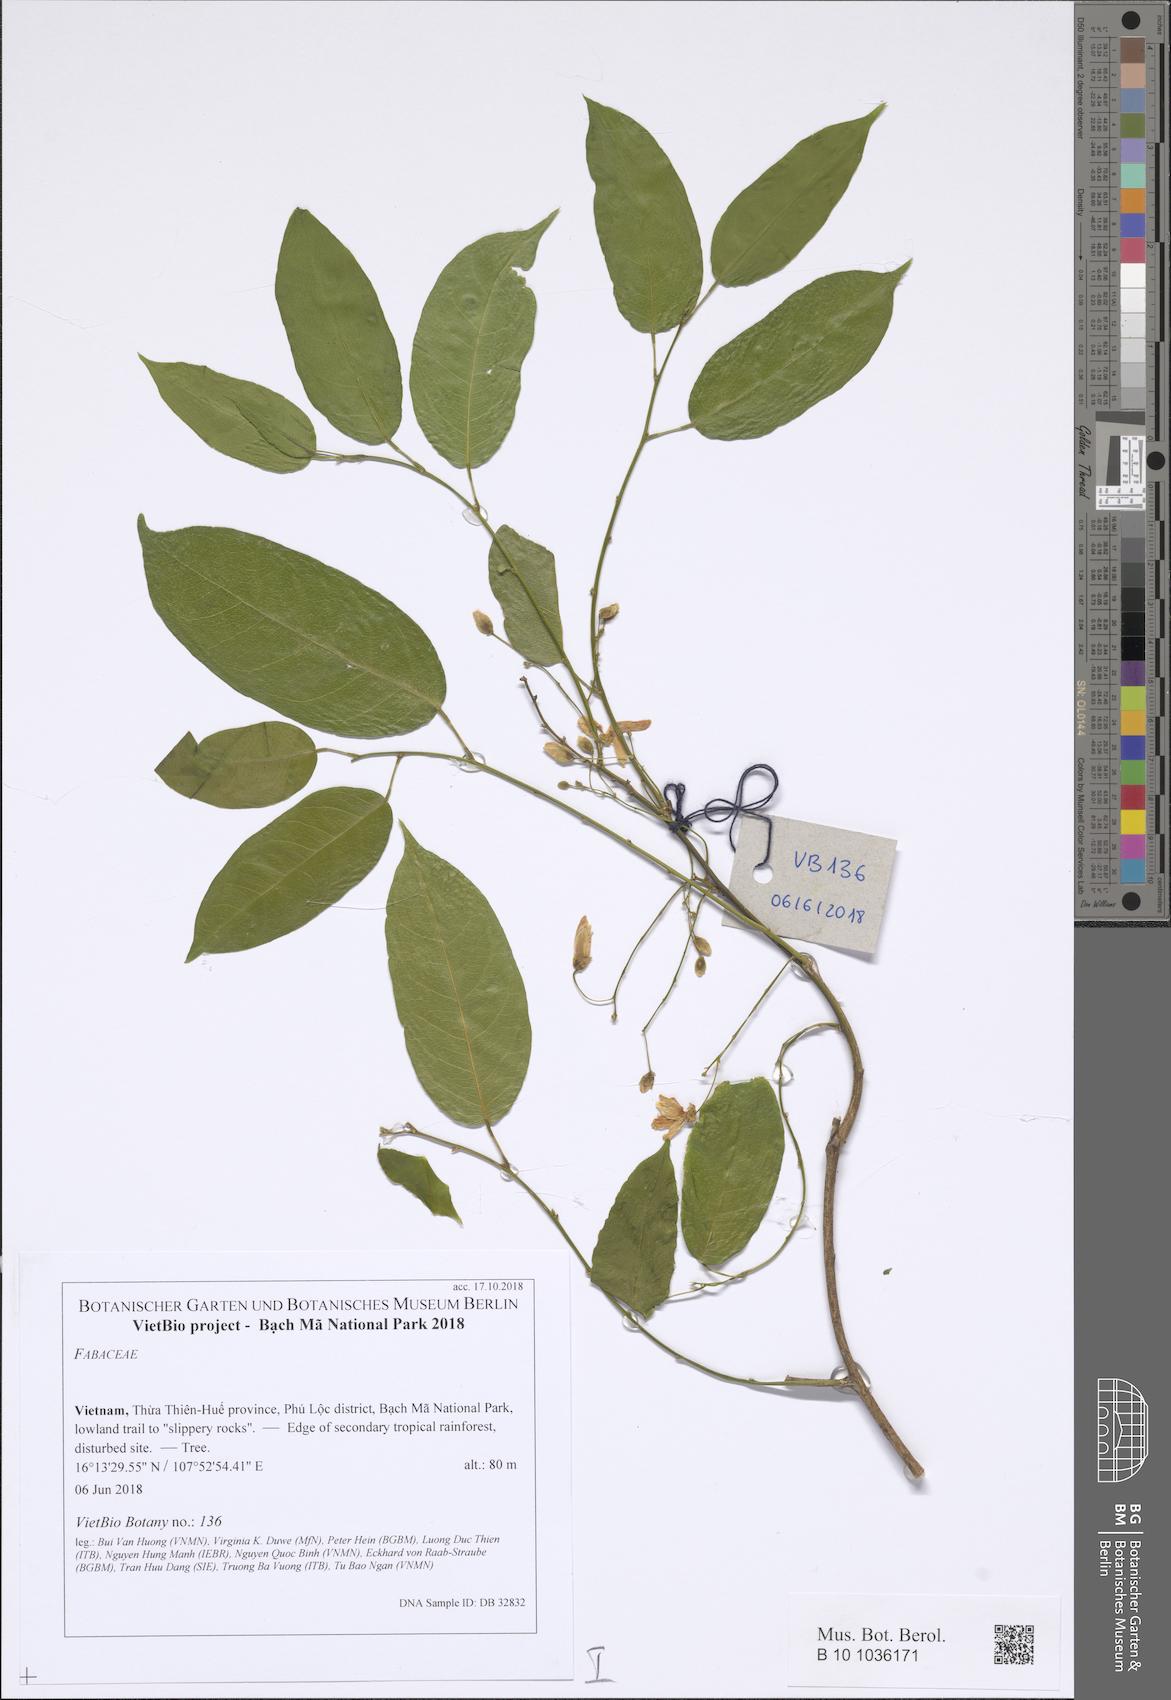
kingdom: Plantae
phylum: Tracheophyta
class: Magnoliopsida
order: Fabales
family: Fabaceae
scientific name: Fabaceae
